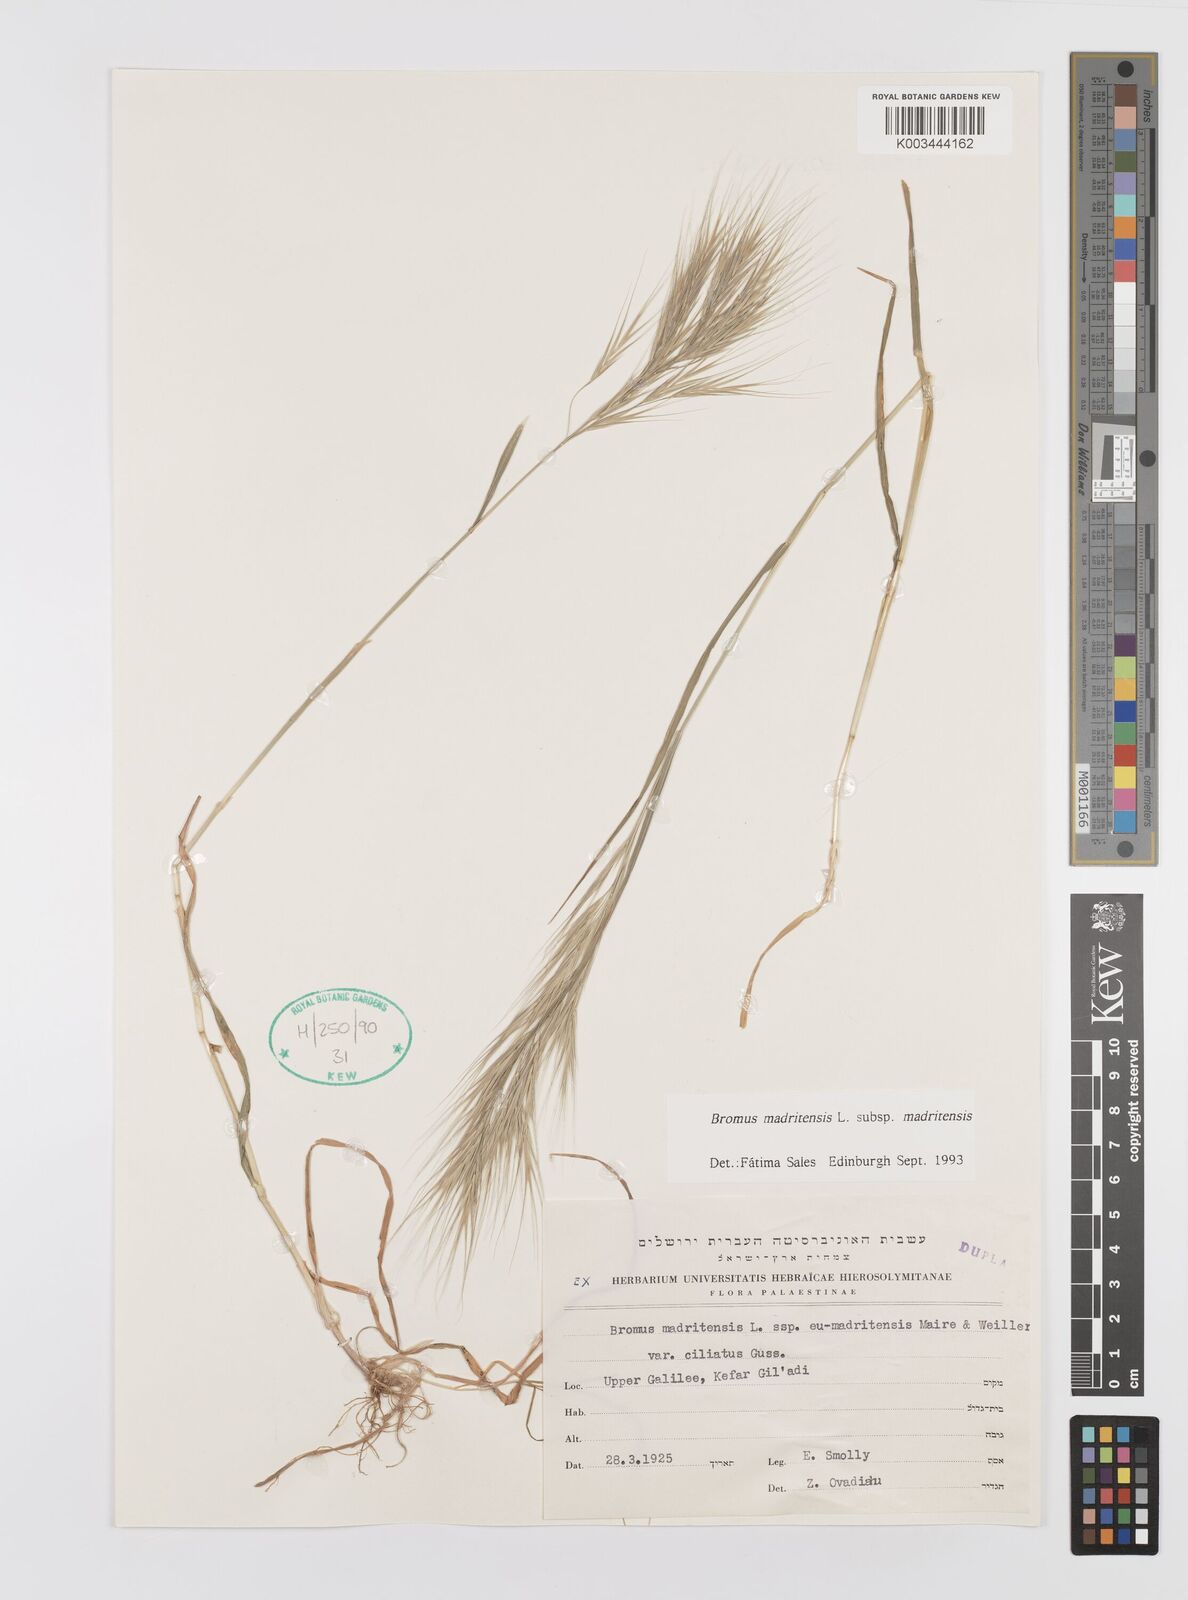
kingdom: Plantae
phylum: Tracheophyta
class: Liliopsida
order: Poales
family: Poaceae
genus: Bromus
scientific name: Bromus madritensis
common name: Compact brome
